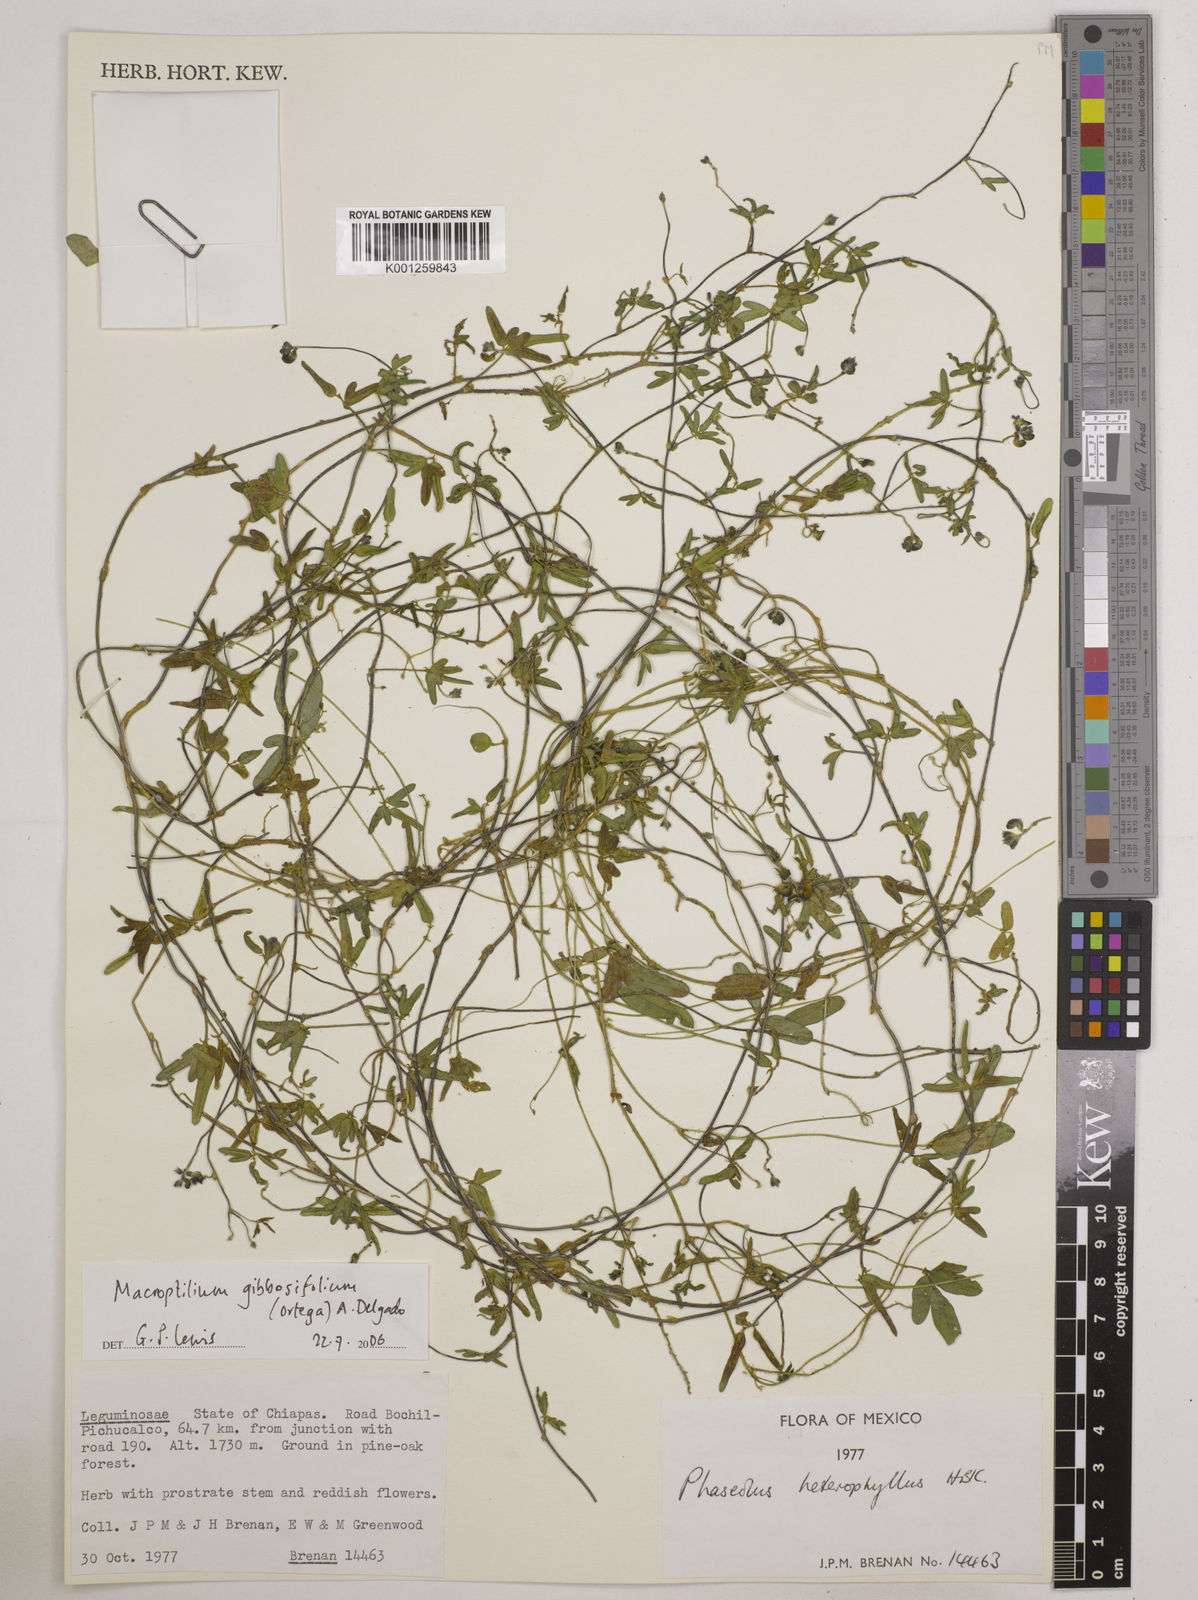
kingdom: Plantae
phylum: Tracheophyta
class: Magnoliopsida
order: Fabales
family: Fabaceae
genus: Macroptilium
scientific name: Macroptilium gibbosifolium
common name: Variableleaf bushbean
